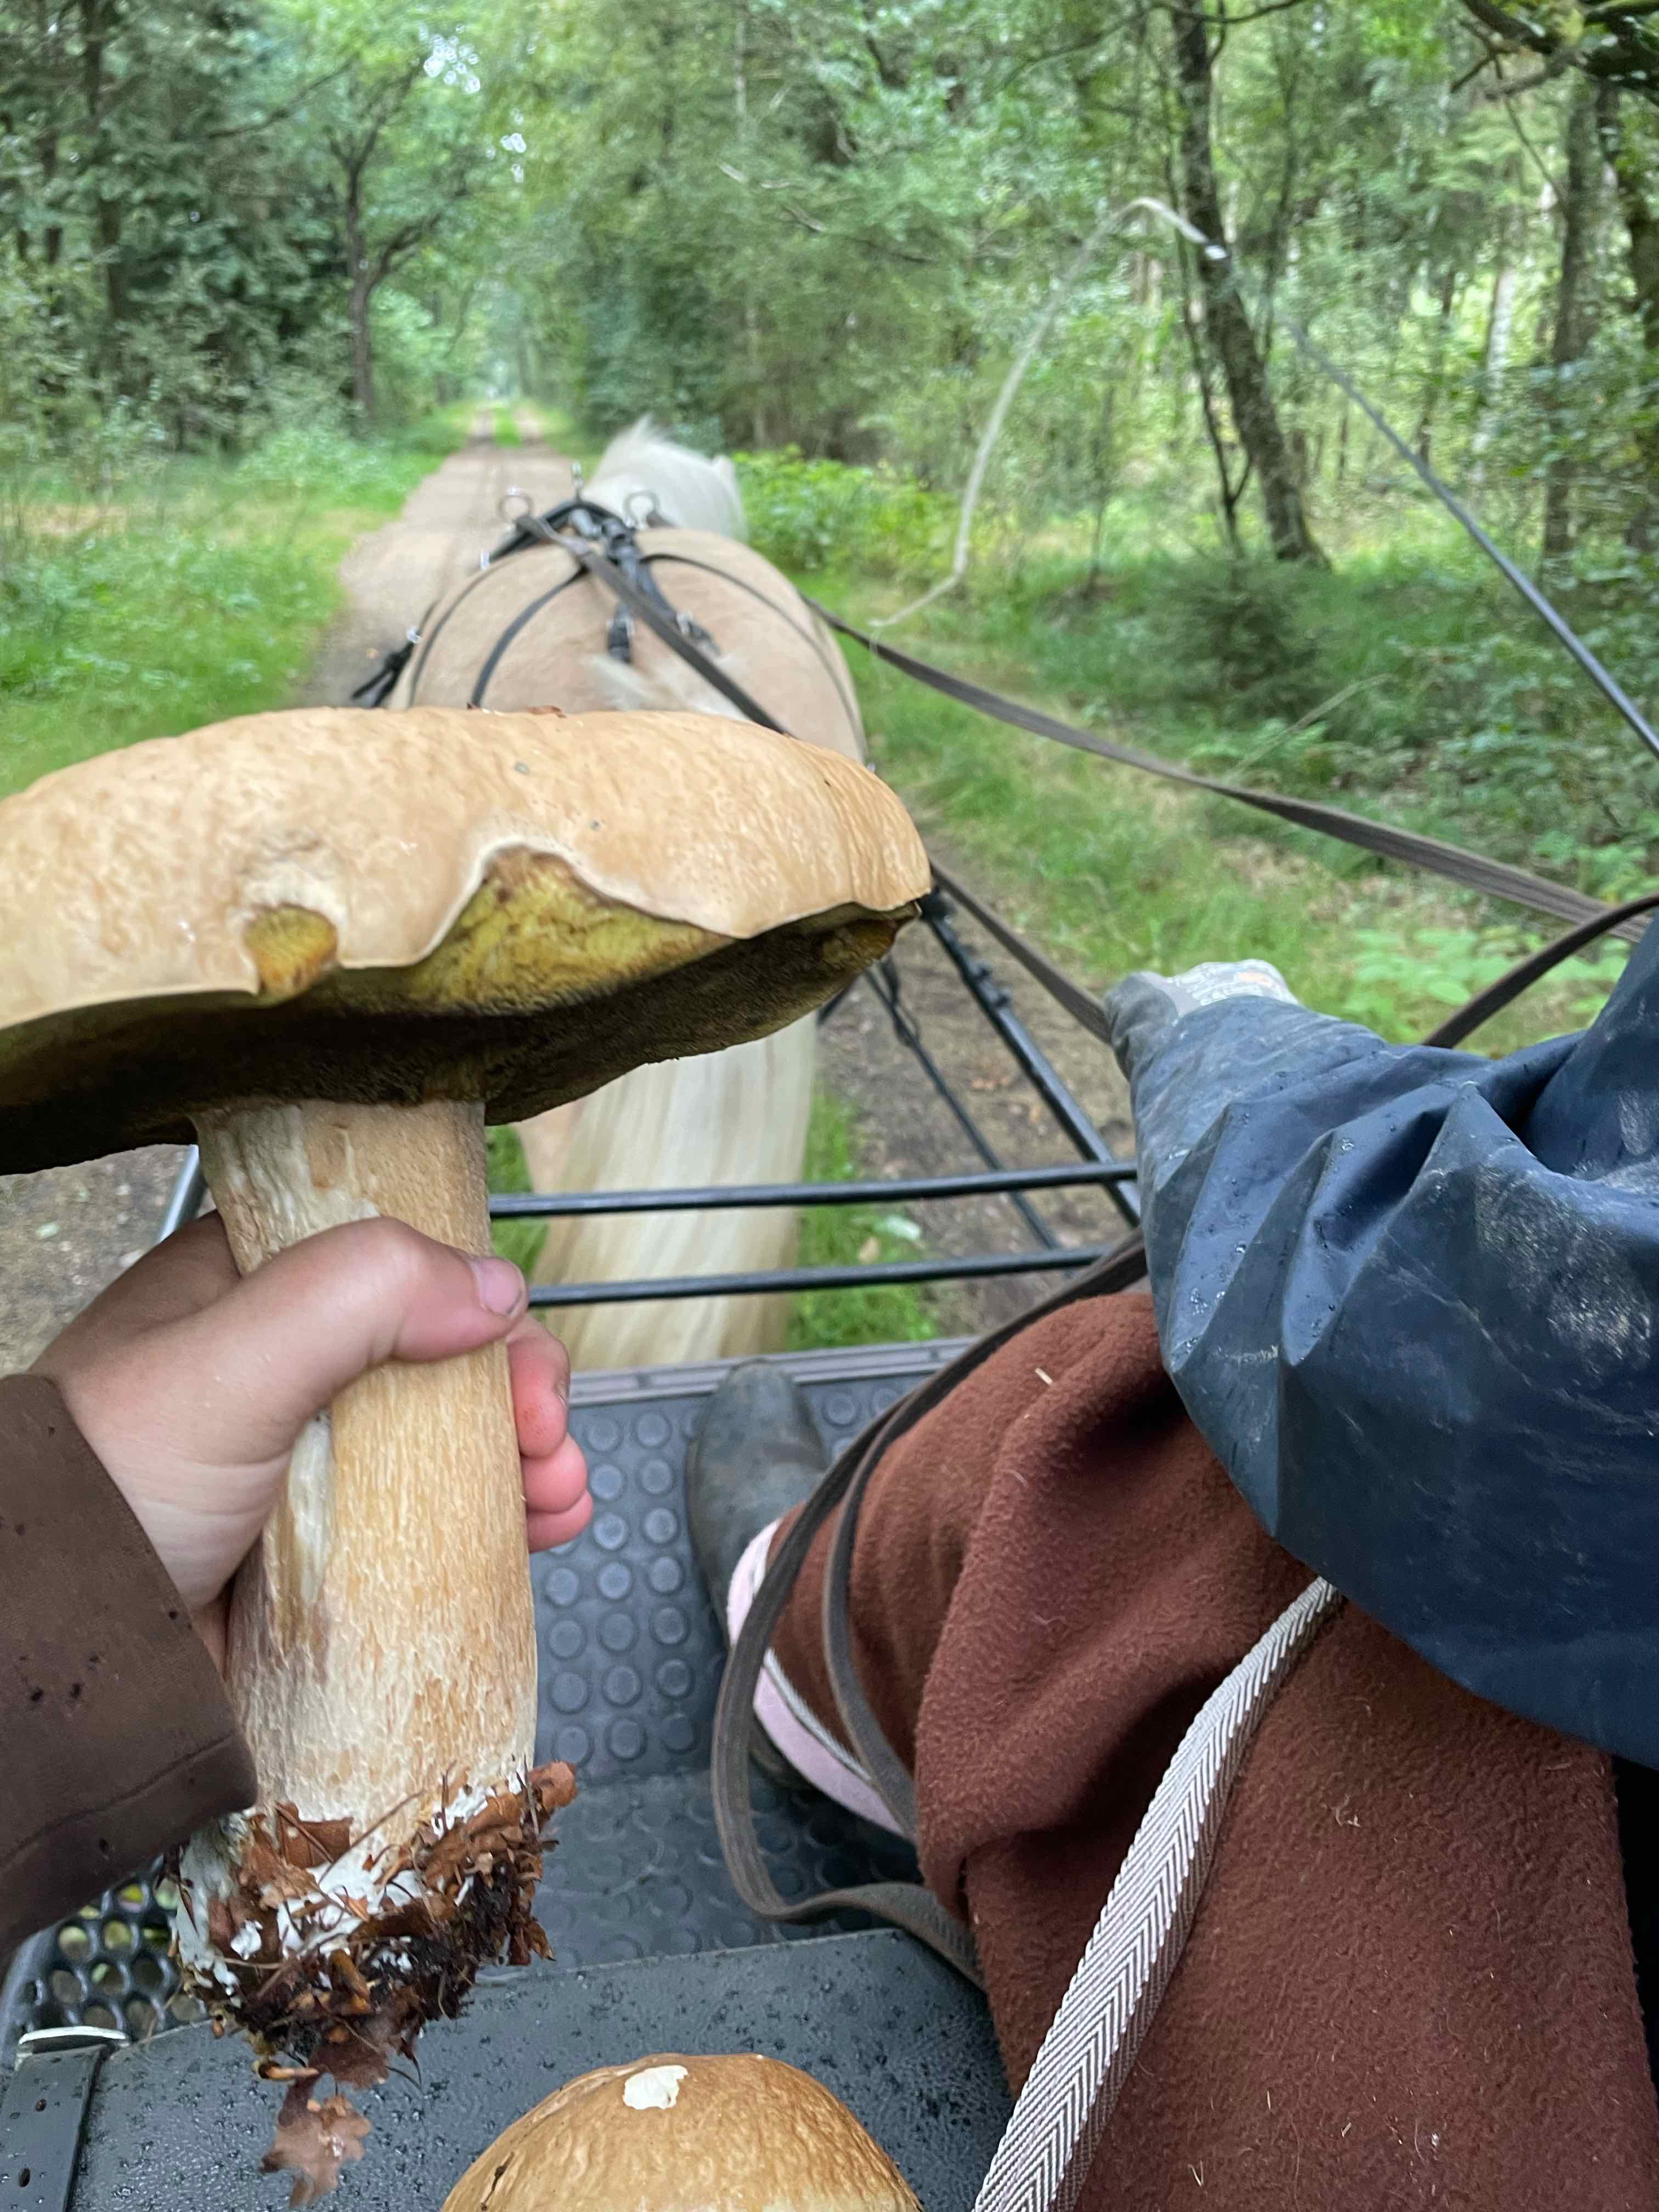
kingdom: Fungi
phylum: Basidiomycota
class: Agaricomycetes
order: Boletales
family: Boletaceae
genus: Boletus
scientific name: Boletus edulis
